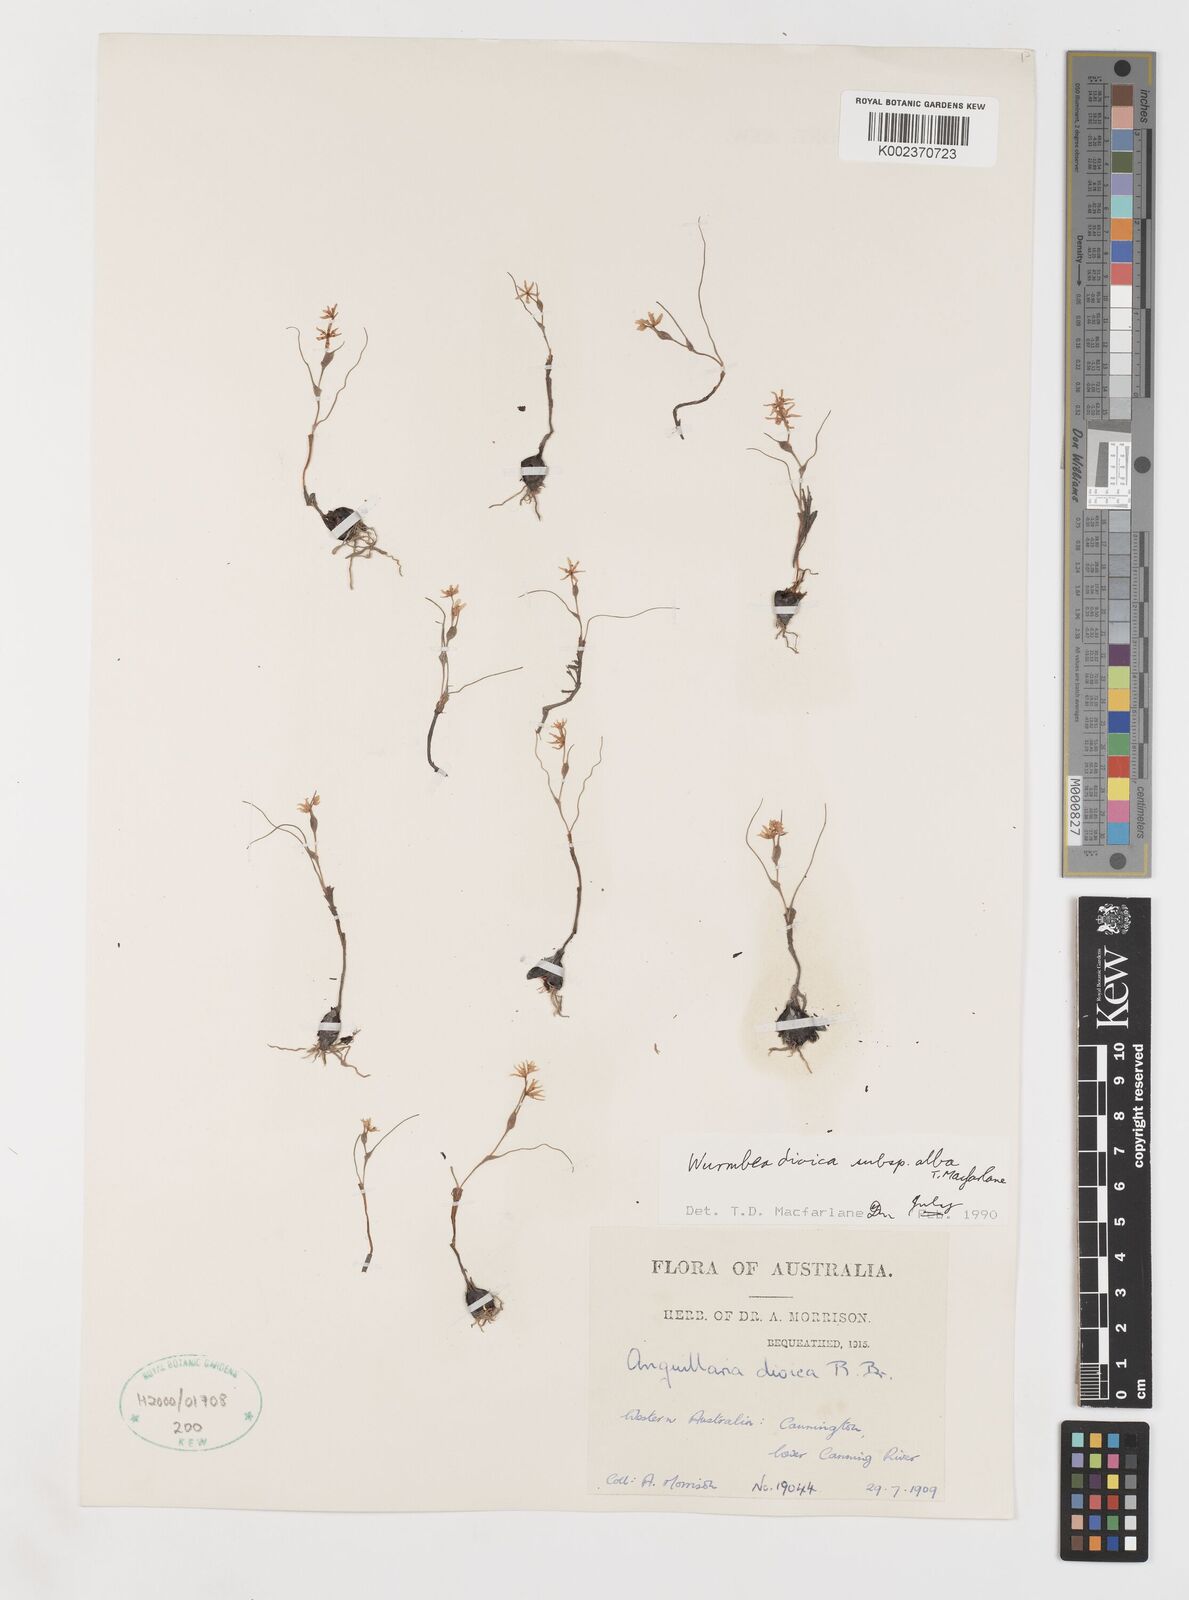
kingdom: Plantae
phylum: Tracheophyta
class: Liliopsida
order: Liliales
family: Colchicaceae
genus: Wurmbea
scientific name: Wurmbea dioica
